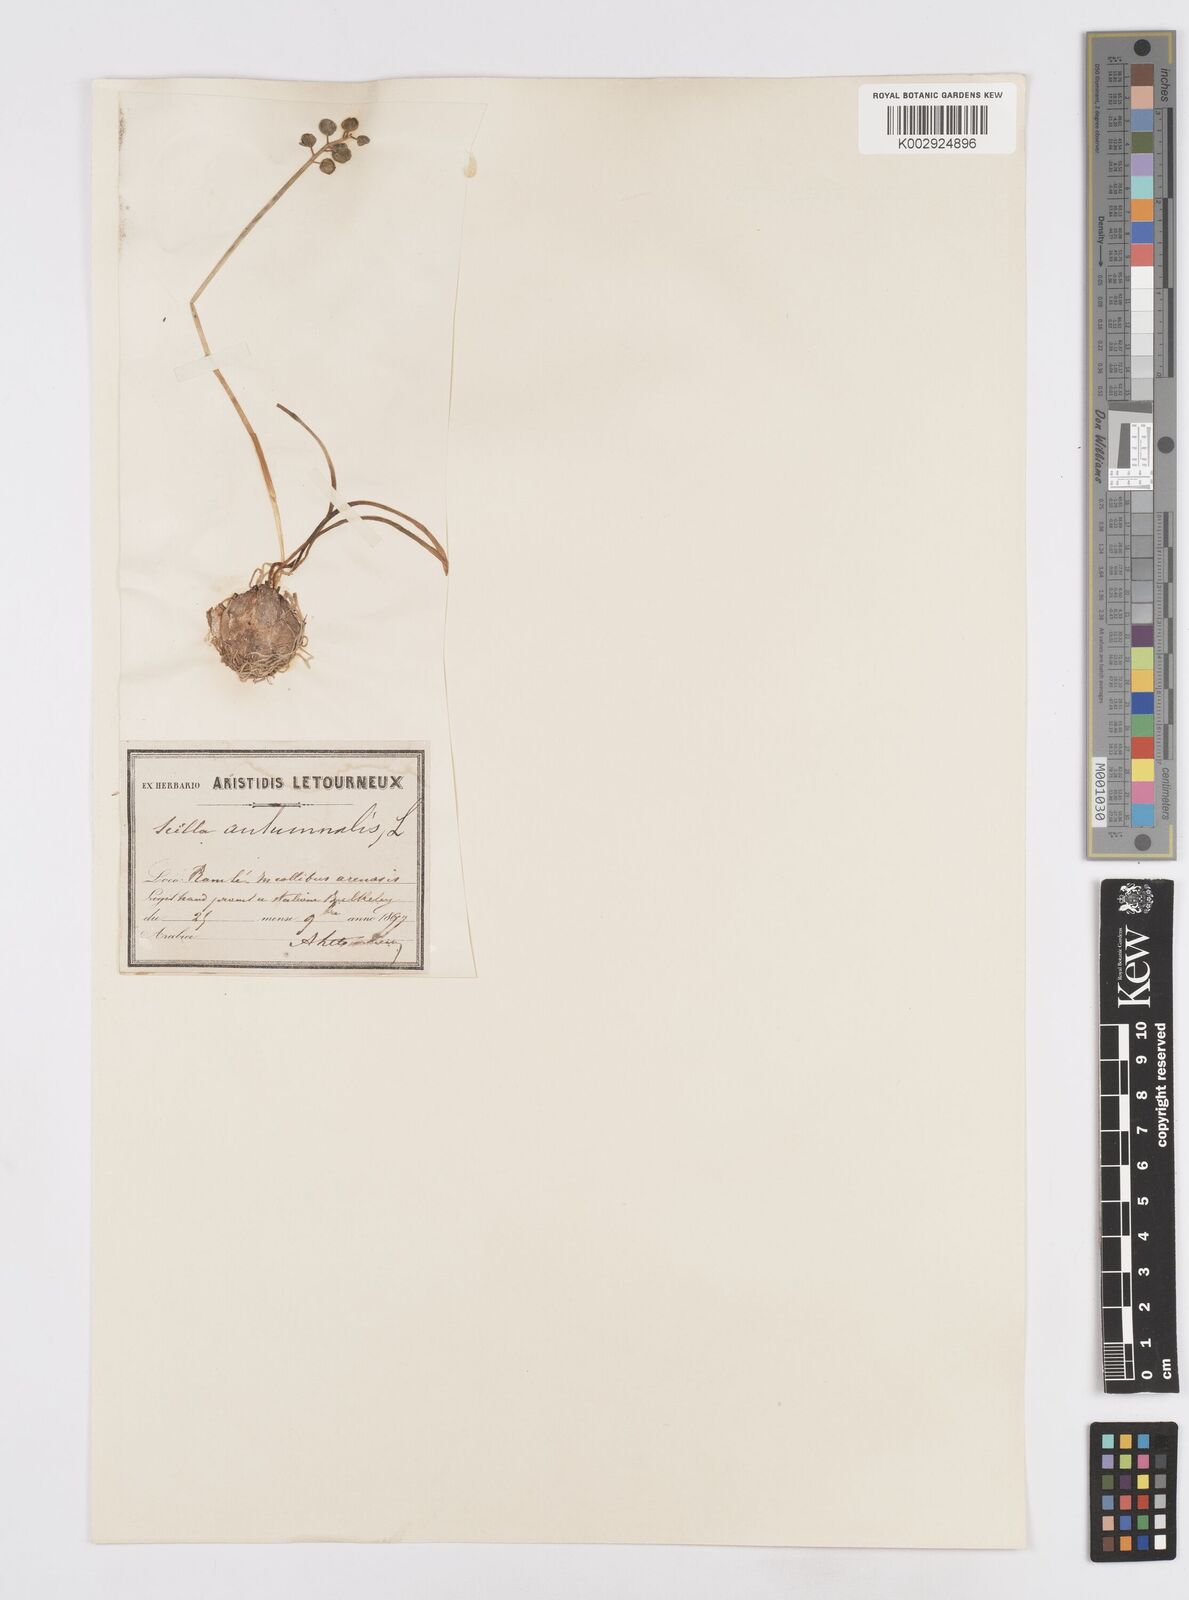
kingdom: Plantae
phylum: Tracheophyta
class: Liliopsida
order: Asparagales
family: Asparagaceae
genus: Prospero
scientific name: Prospero autumnale
